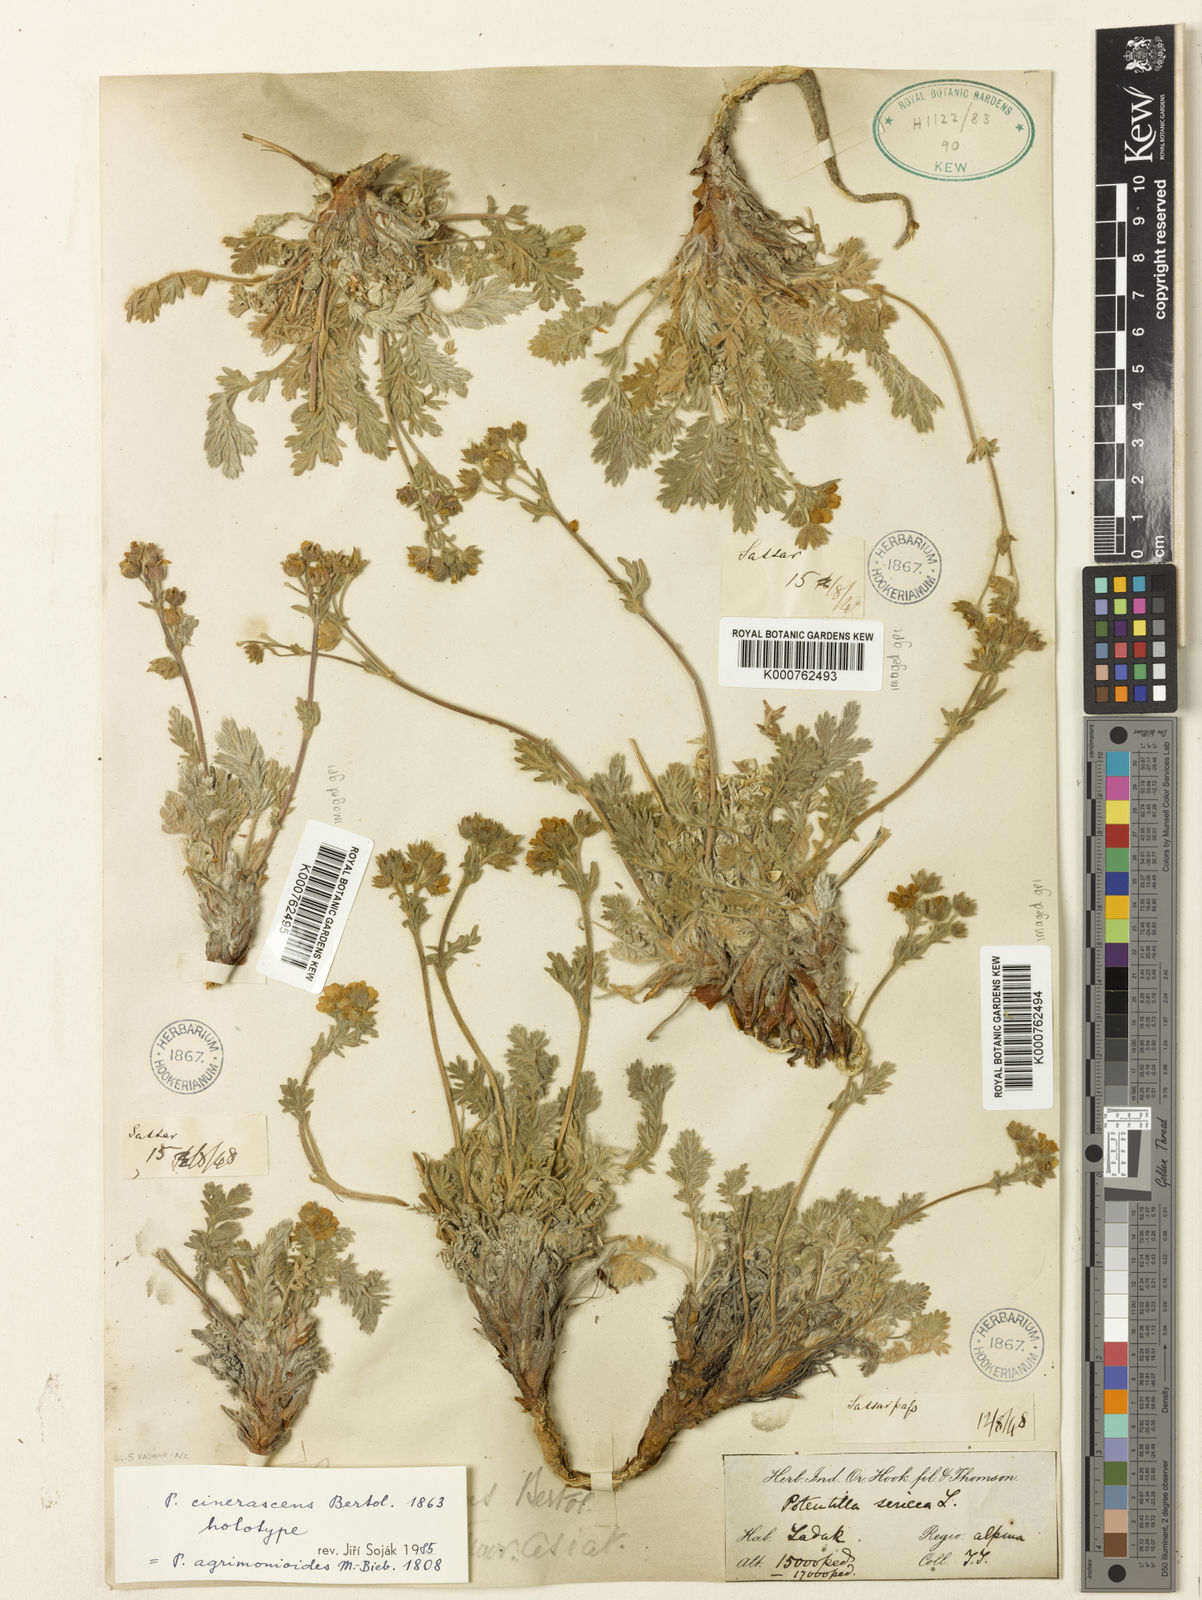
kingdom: Plantae
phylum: Tracheophyta
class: Magnoliopsida
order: Rosales
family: Rosaceae
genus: Potentilla
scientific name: Potentilla
